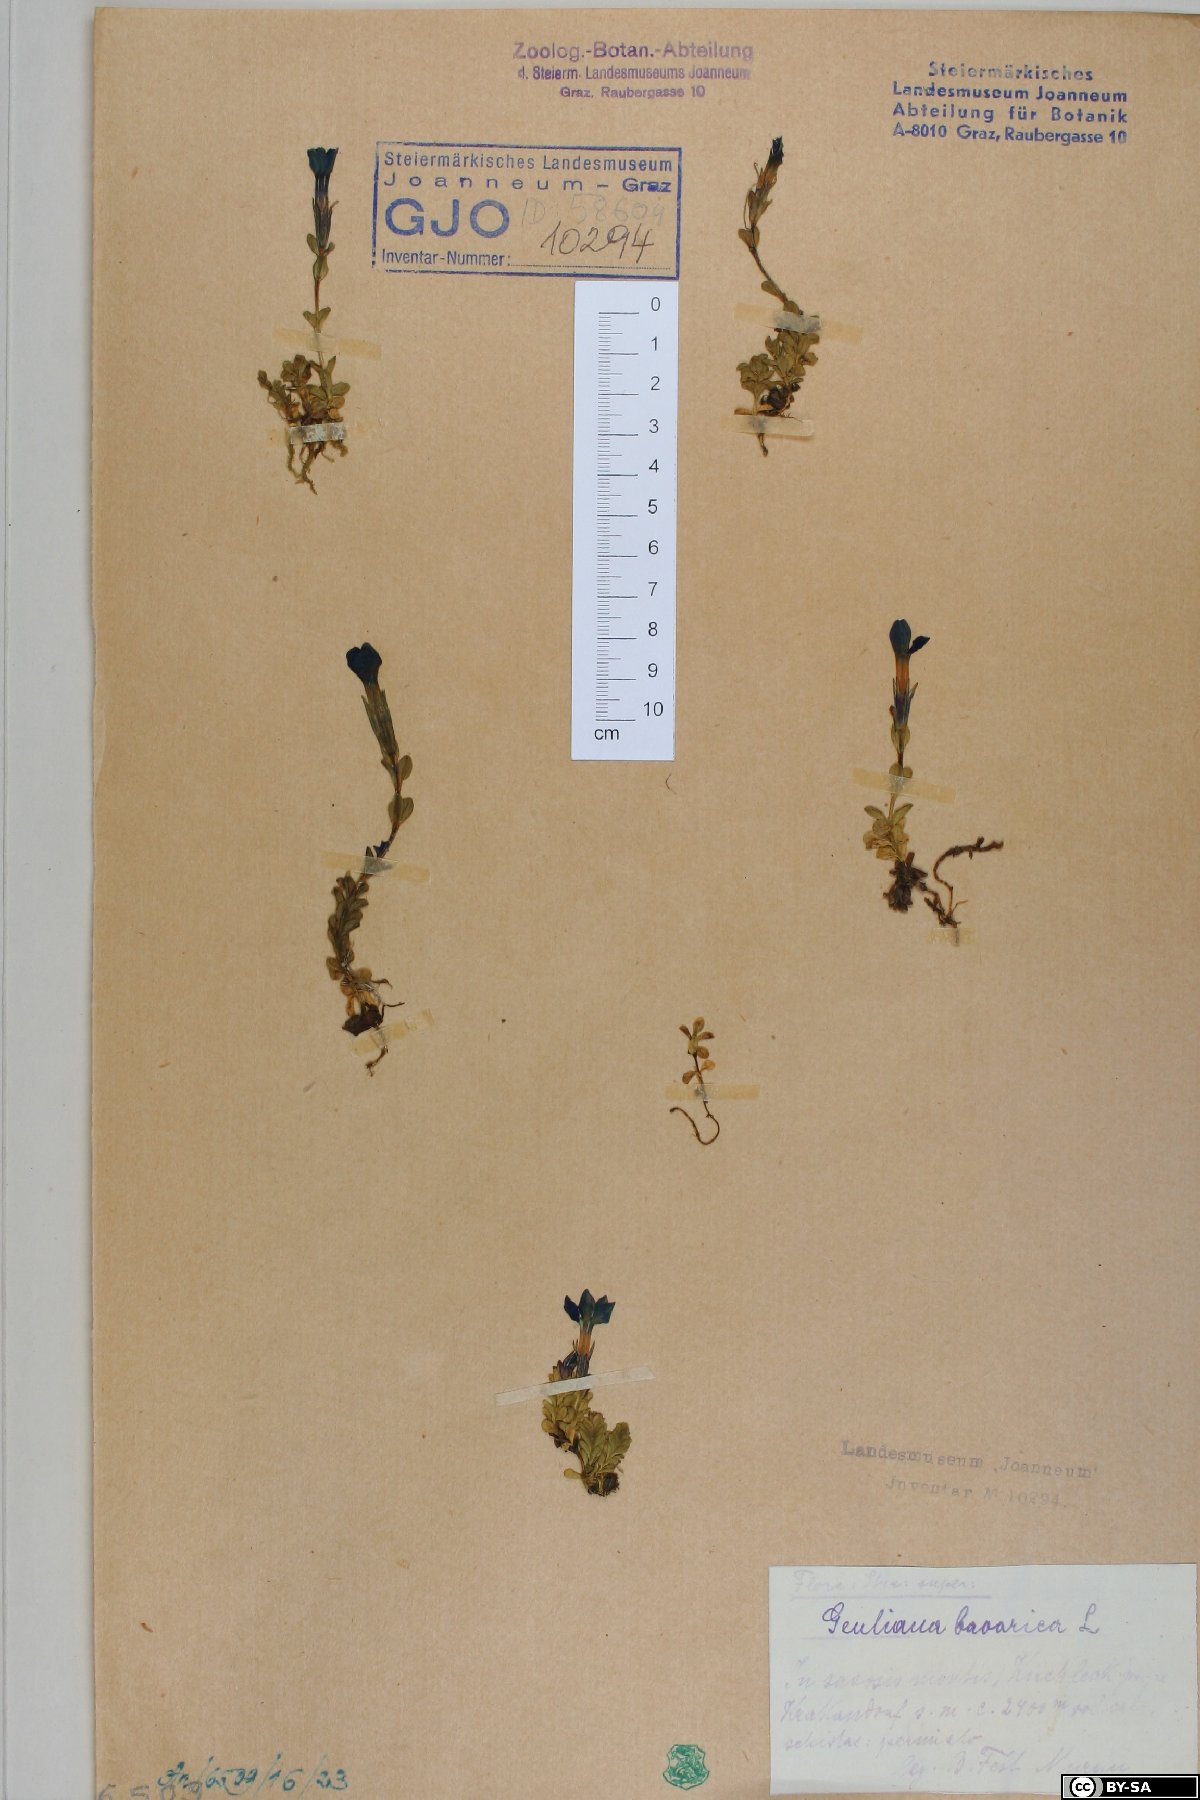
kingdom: Plantae
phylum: Tracheophyta
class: Magnoliopsida
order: Gentianales
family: Gentianaceae
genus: Gentiana
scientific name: Gentiana bavarica
